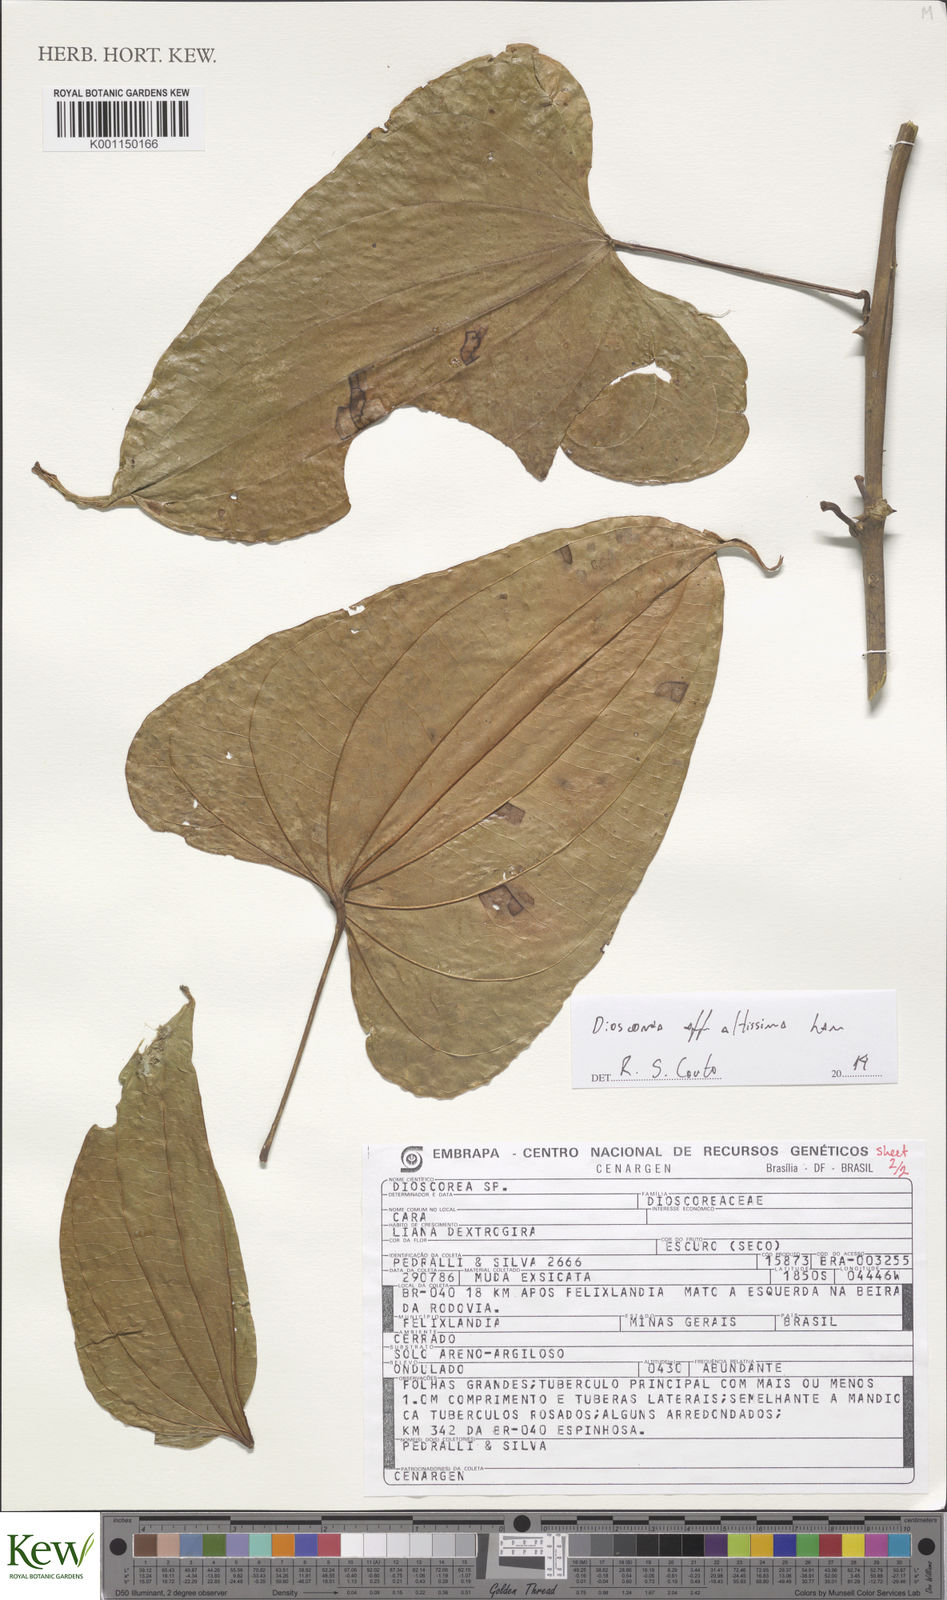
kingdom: Plantae
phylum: Tracheophyta
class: Liliopsida
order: Dioscoreales
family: Dioscoreaceae
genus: Dioscorea
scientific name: Dioscorea cayenensis
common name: Attoto yam
